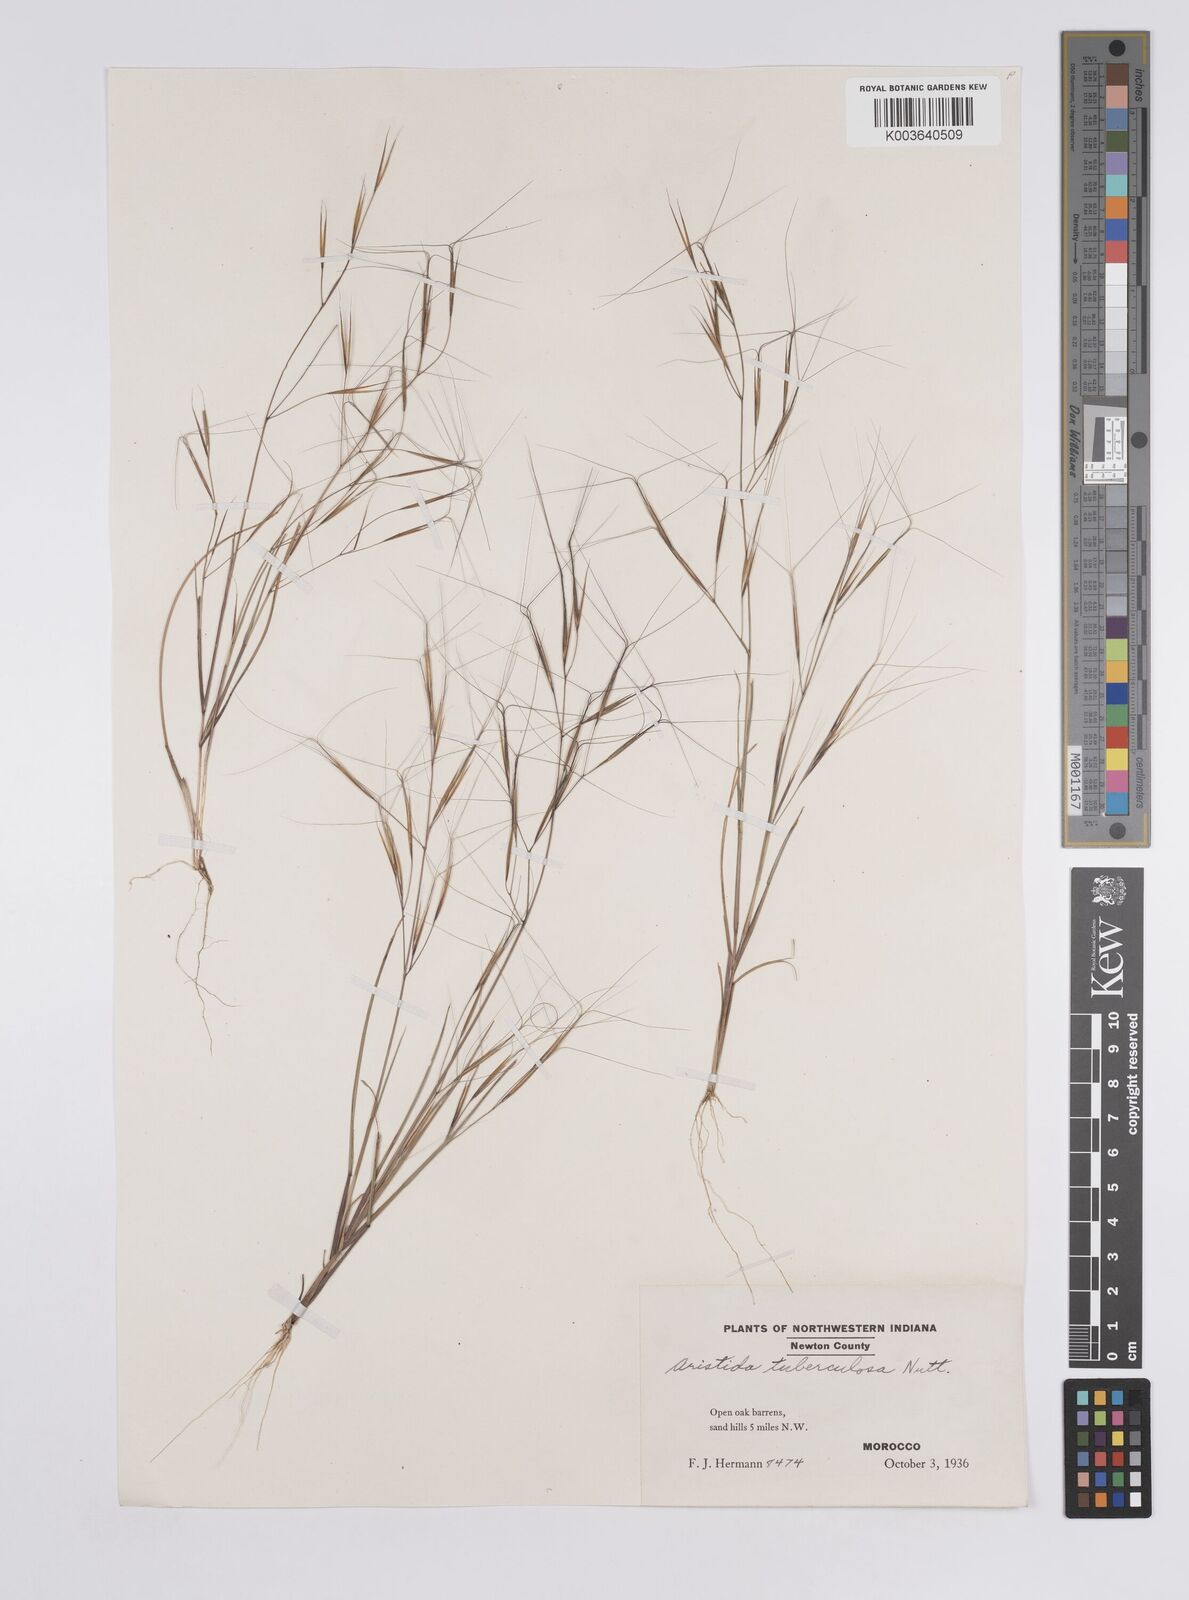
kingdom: Plantae
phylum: Tracheophyta
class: Liliopsida
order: Poales
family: Poaceae
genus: Aristida
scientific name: Aristida tuberculosa
